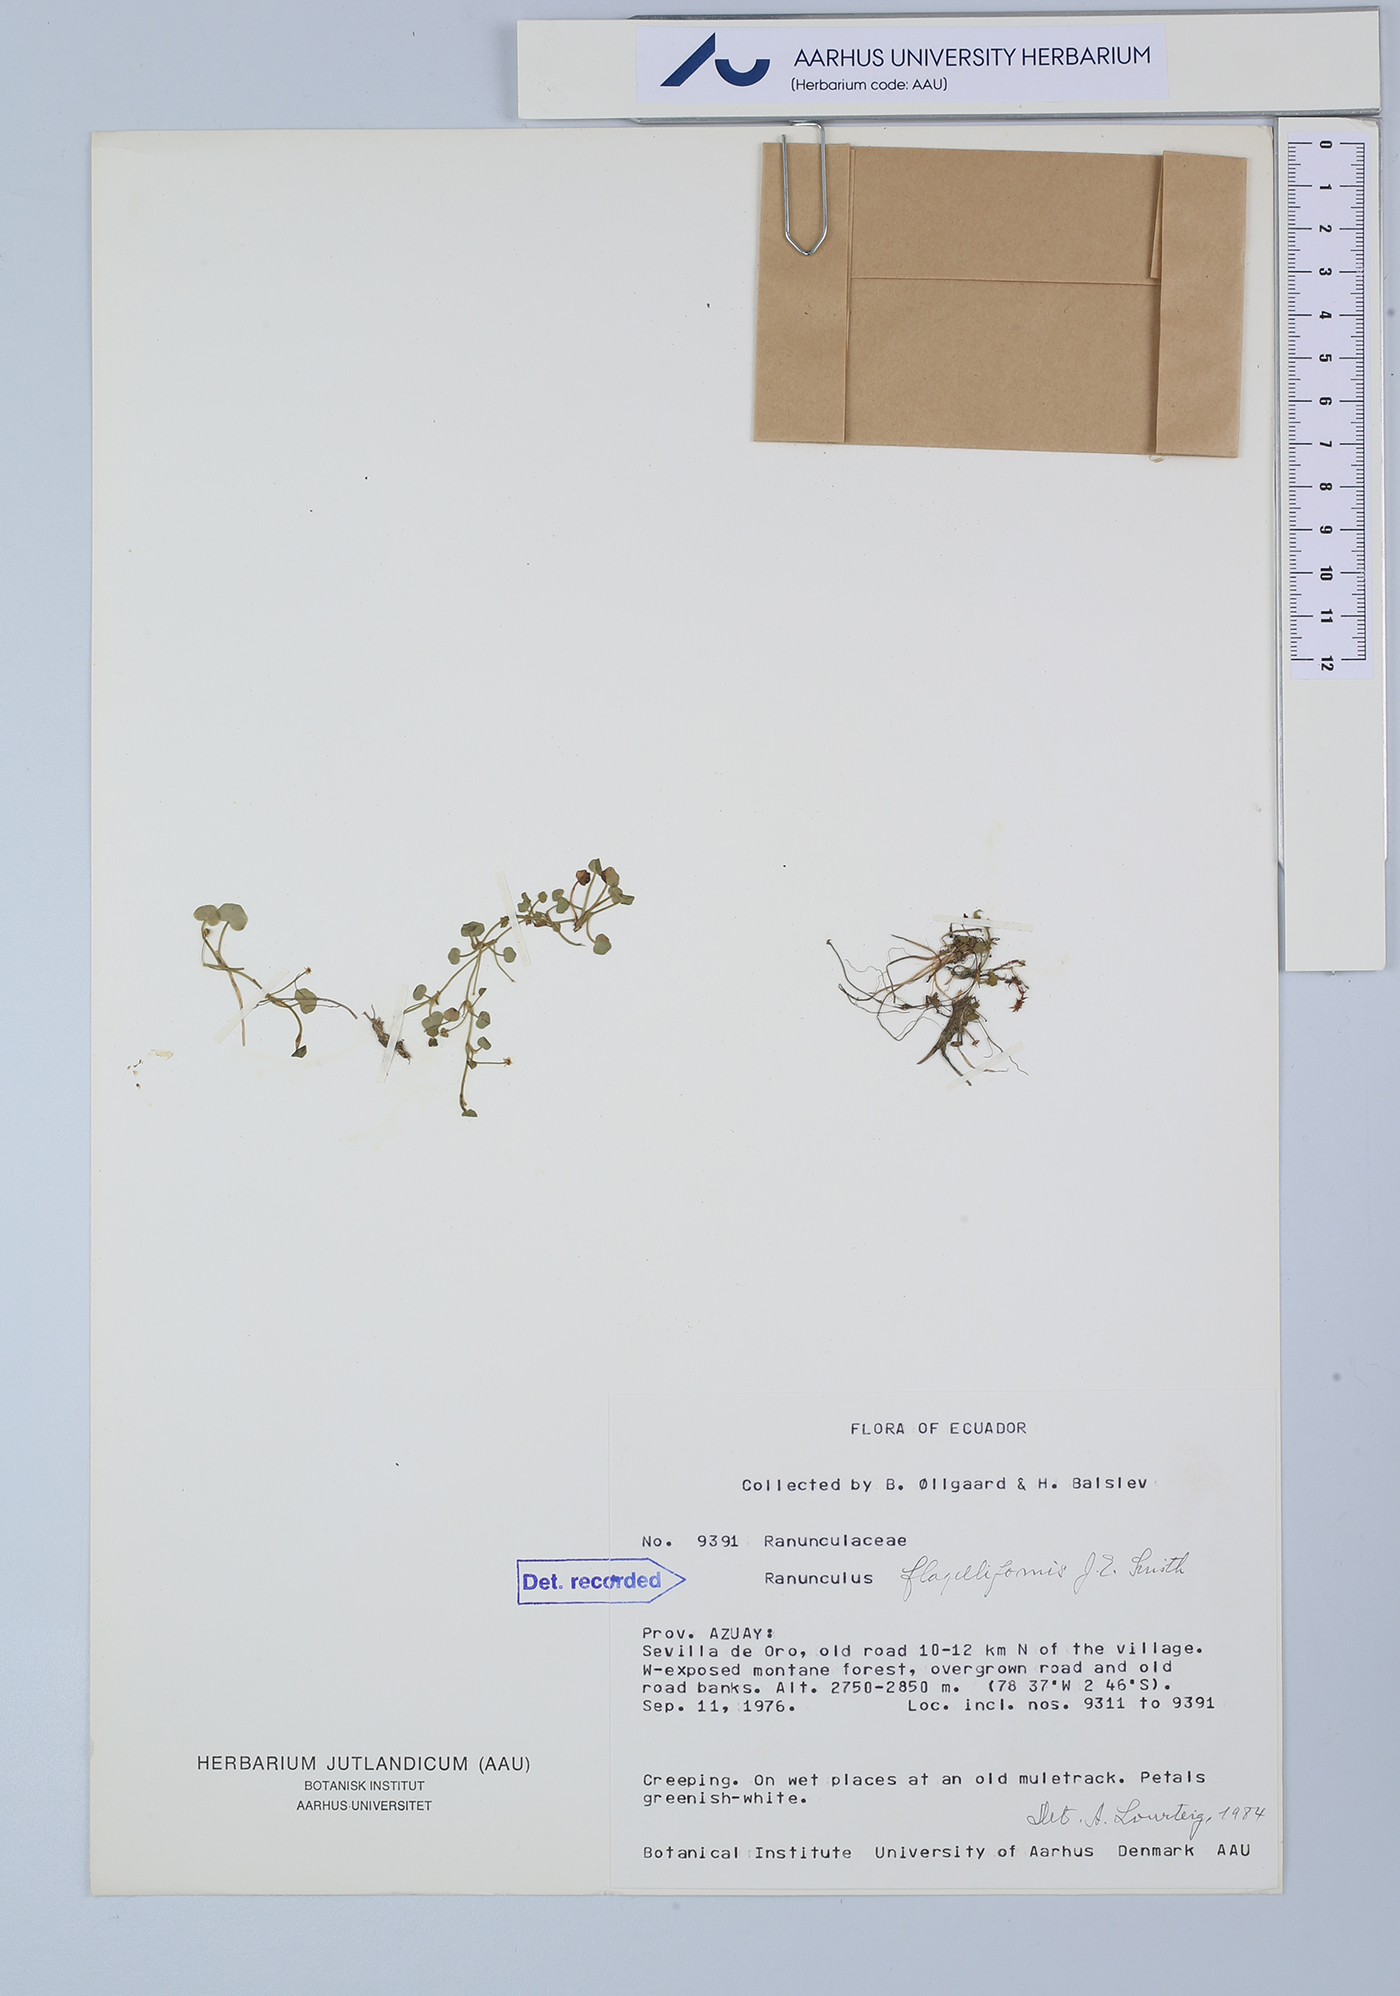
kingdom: Plantae
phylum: Tracheophyta
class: Magnoliopsida
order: Ranunculales
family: Ranunculaceae
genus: Ranunculus
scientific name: Ranunculus flagelliformis
